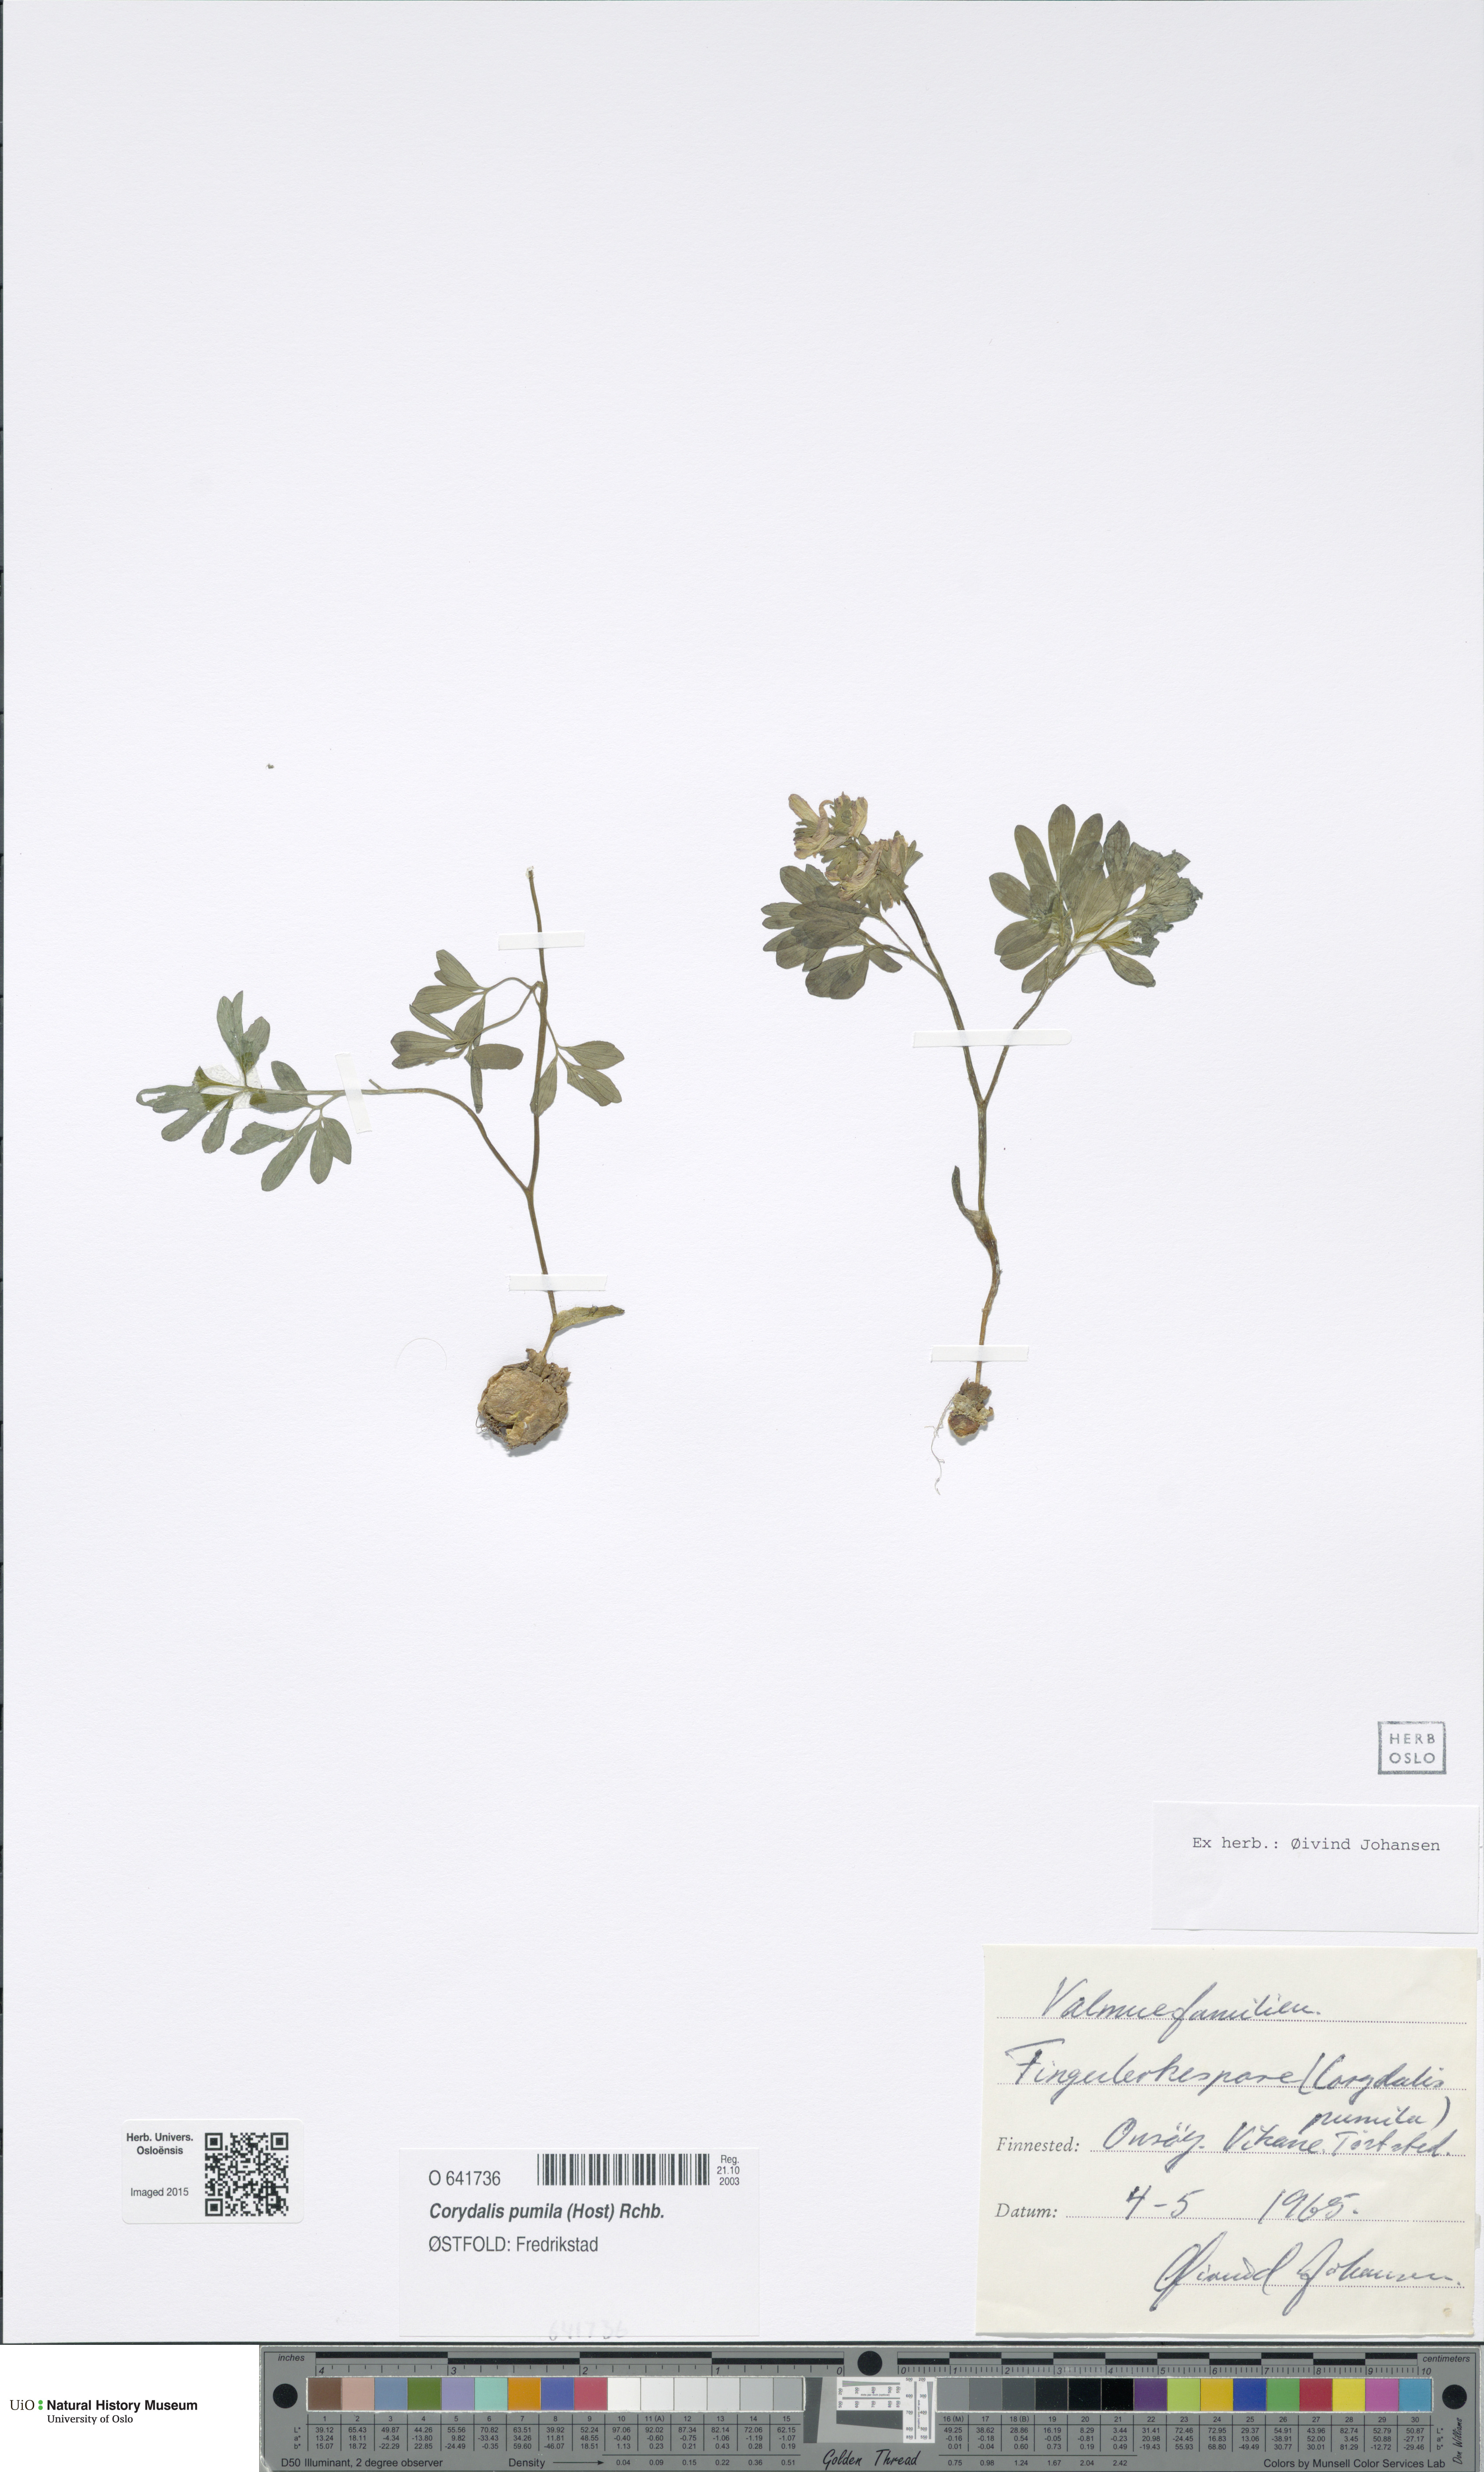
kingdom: Plantae
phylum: Tracheophyta
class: Magnoliopsida
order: Ranunculales
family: Papaveraceae
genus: Corydalis
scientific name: Corydalis pumila
